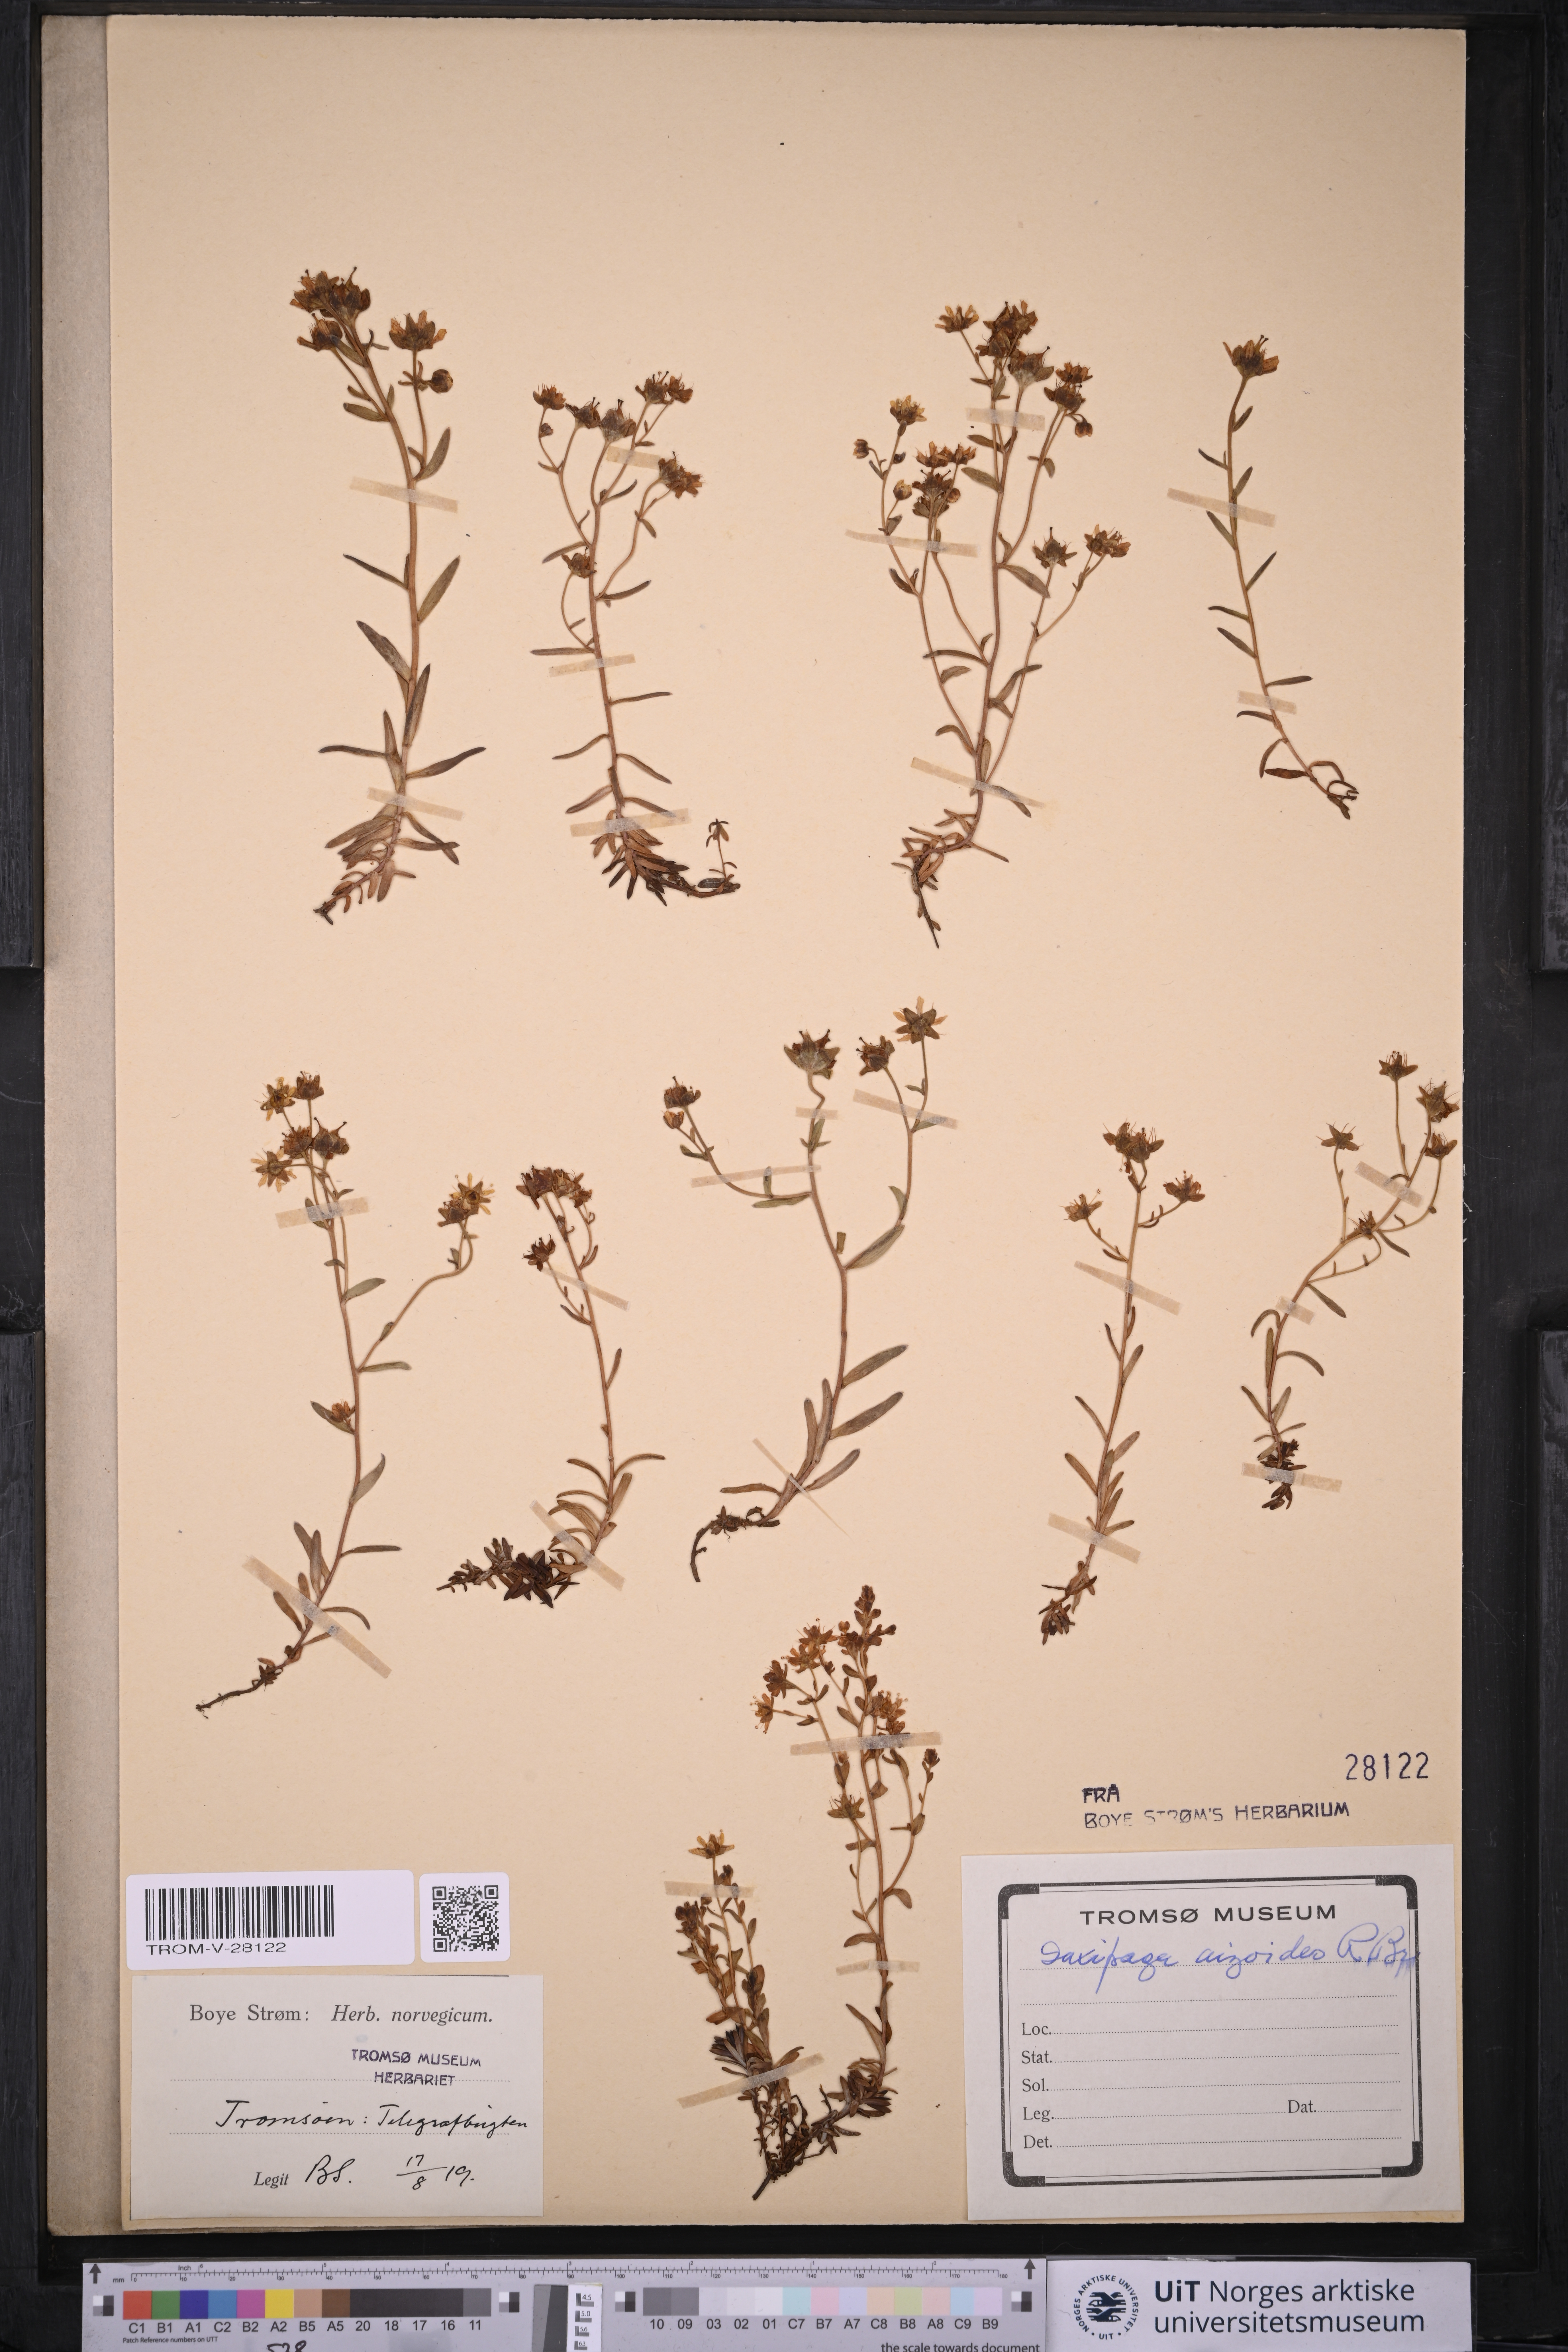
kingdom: Plantae
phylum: Tracheophyta
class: Magnoliopsida
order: Saxifragales
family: Saxifragaceae
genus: Saxifraga
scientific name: Saxifraga aizoides
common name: Yellow mountain saxifrage
